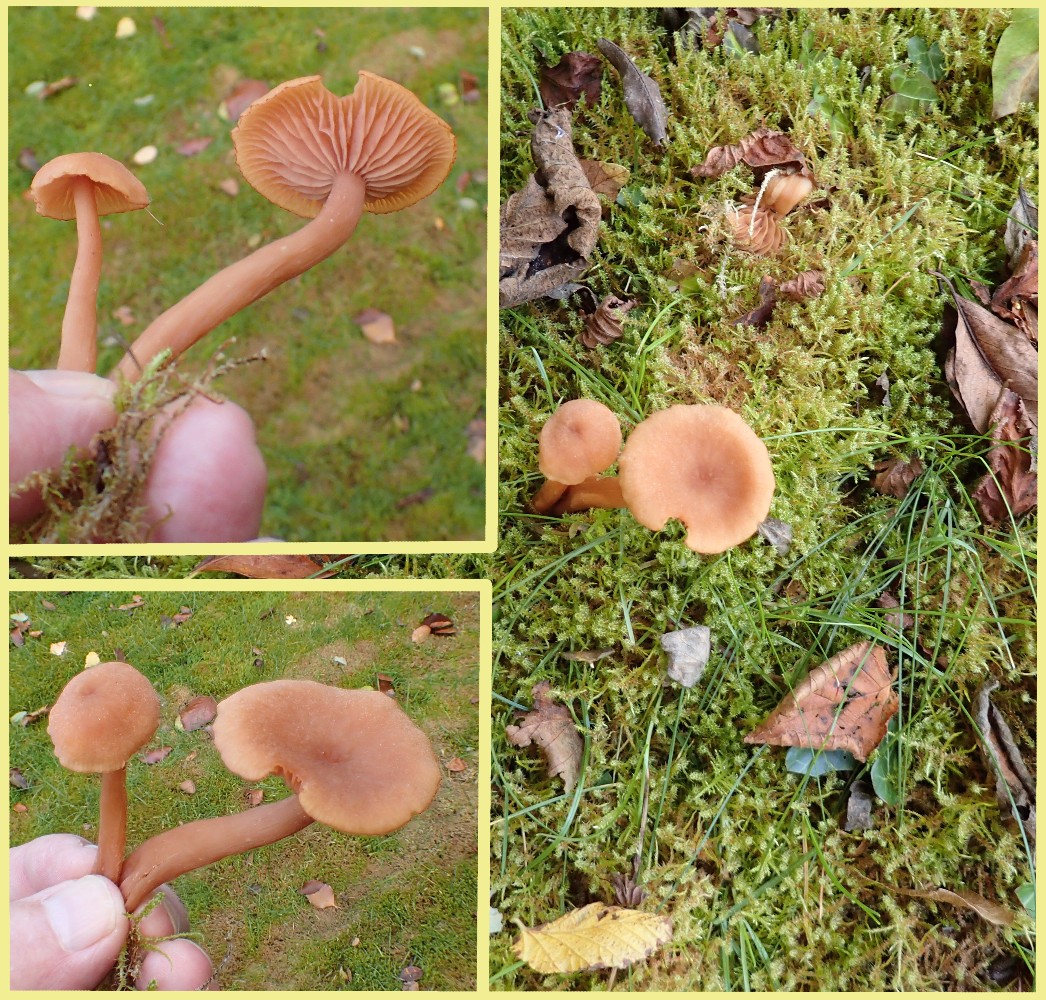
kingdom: Fungi
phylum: Basidiomycota
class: Agaricomycetes
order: Agaricales
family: Hydnangiaceae
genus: Laccaria
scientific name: Laccaria laccata
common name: rød ametysthat
